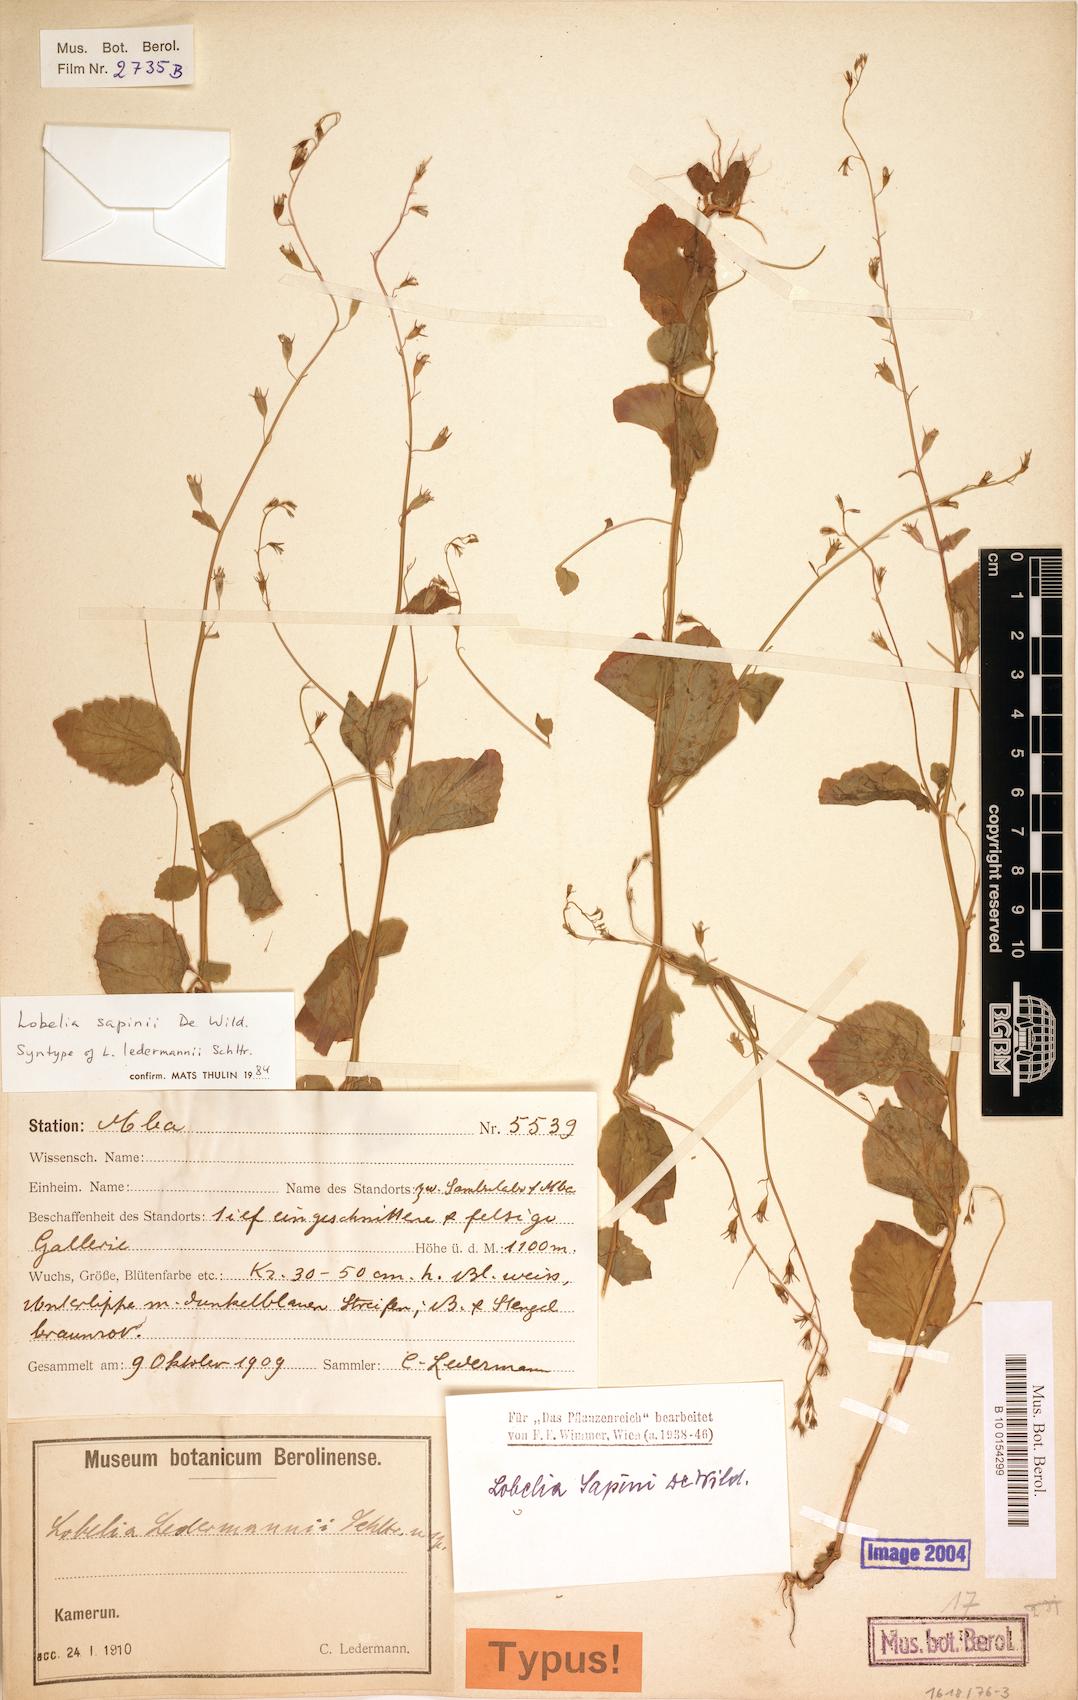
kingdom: Plantae
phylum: Tracheophyta
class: Magnoliopsida
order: Asterales
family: Campanulaceae
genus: Lobelia
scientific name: Lobelia sapinii
